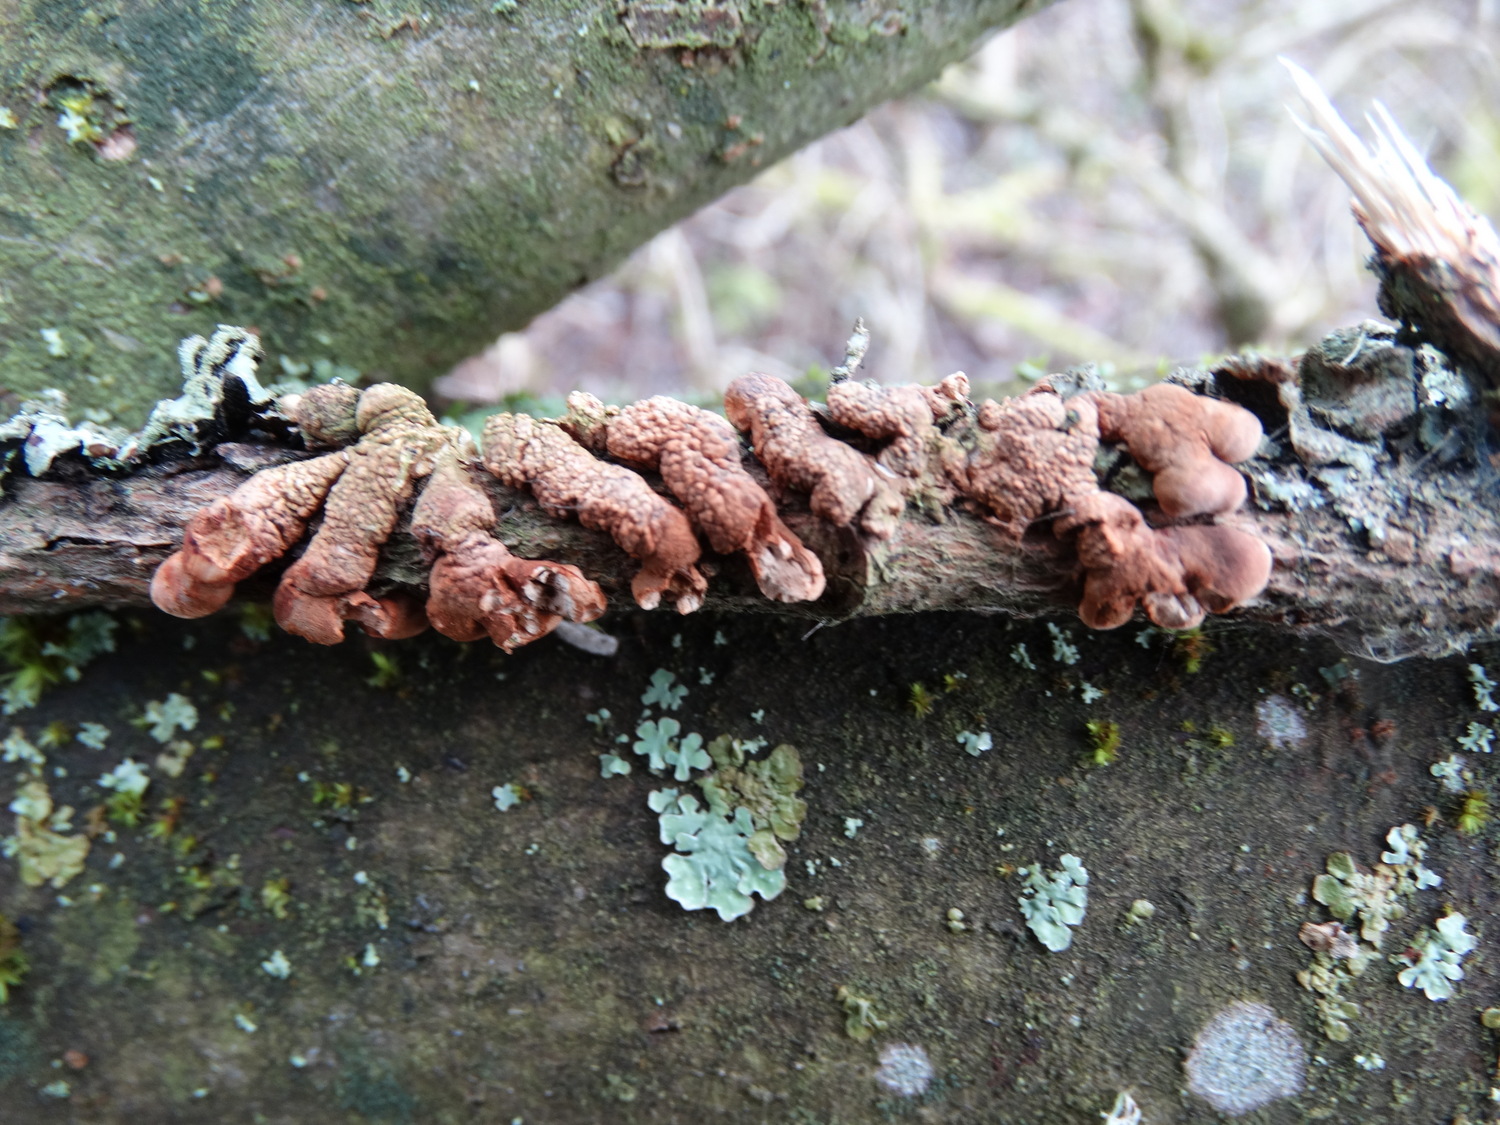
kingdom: Fungi
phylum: Ascomycota
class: Sordariomycetes
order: Hypocreales
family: Hypocreaceae
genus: Hypocreopsis
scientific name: Hypocreopsis lichenoides
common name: pilfinger
